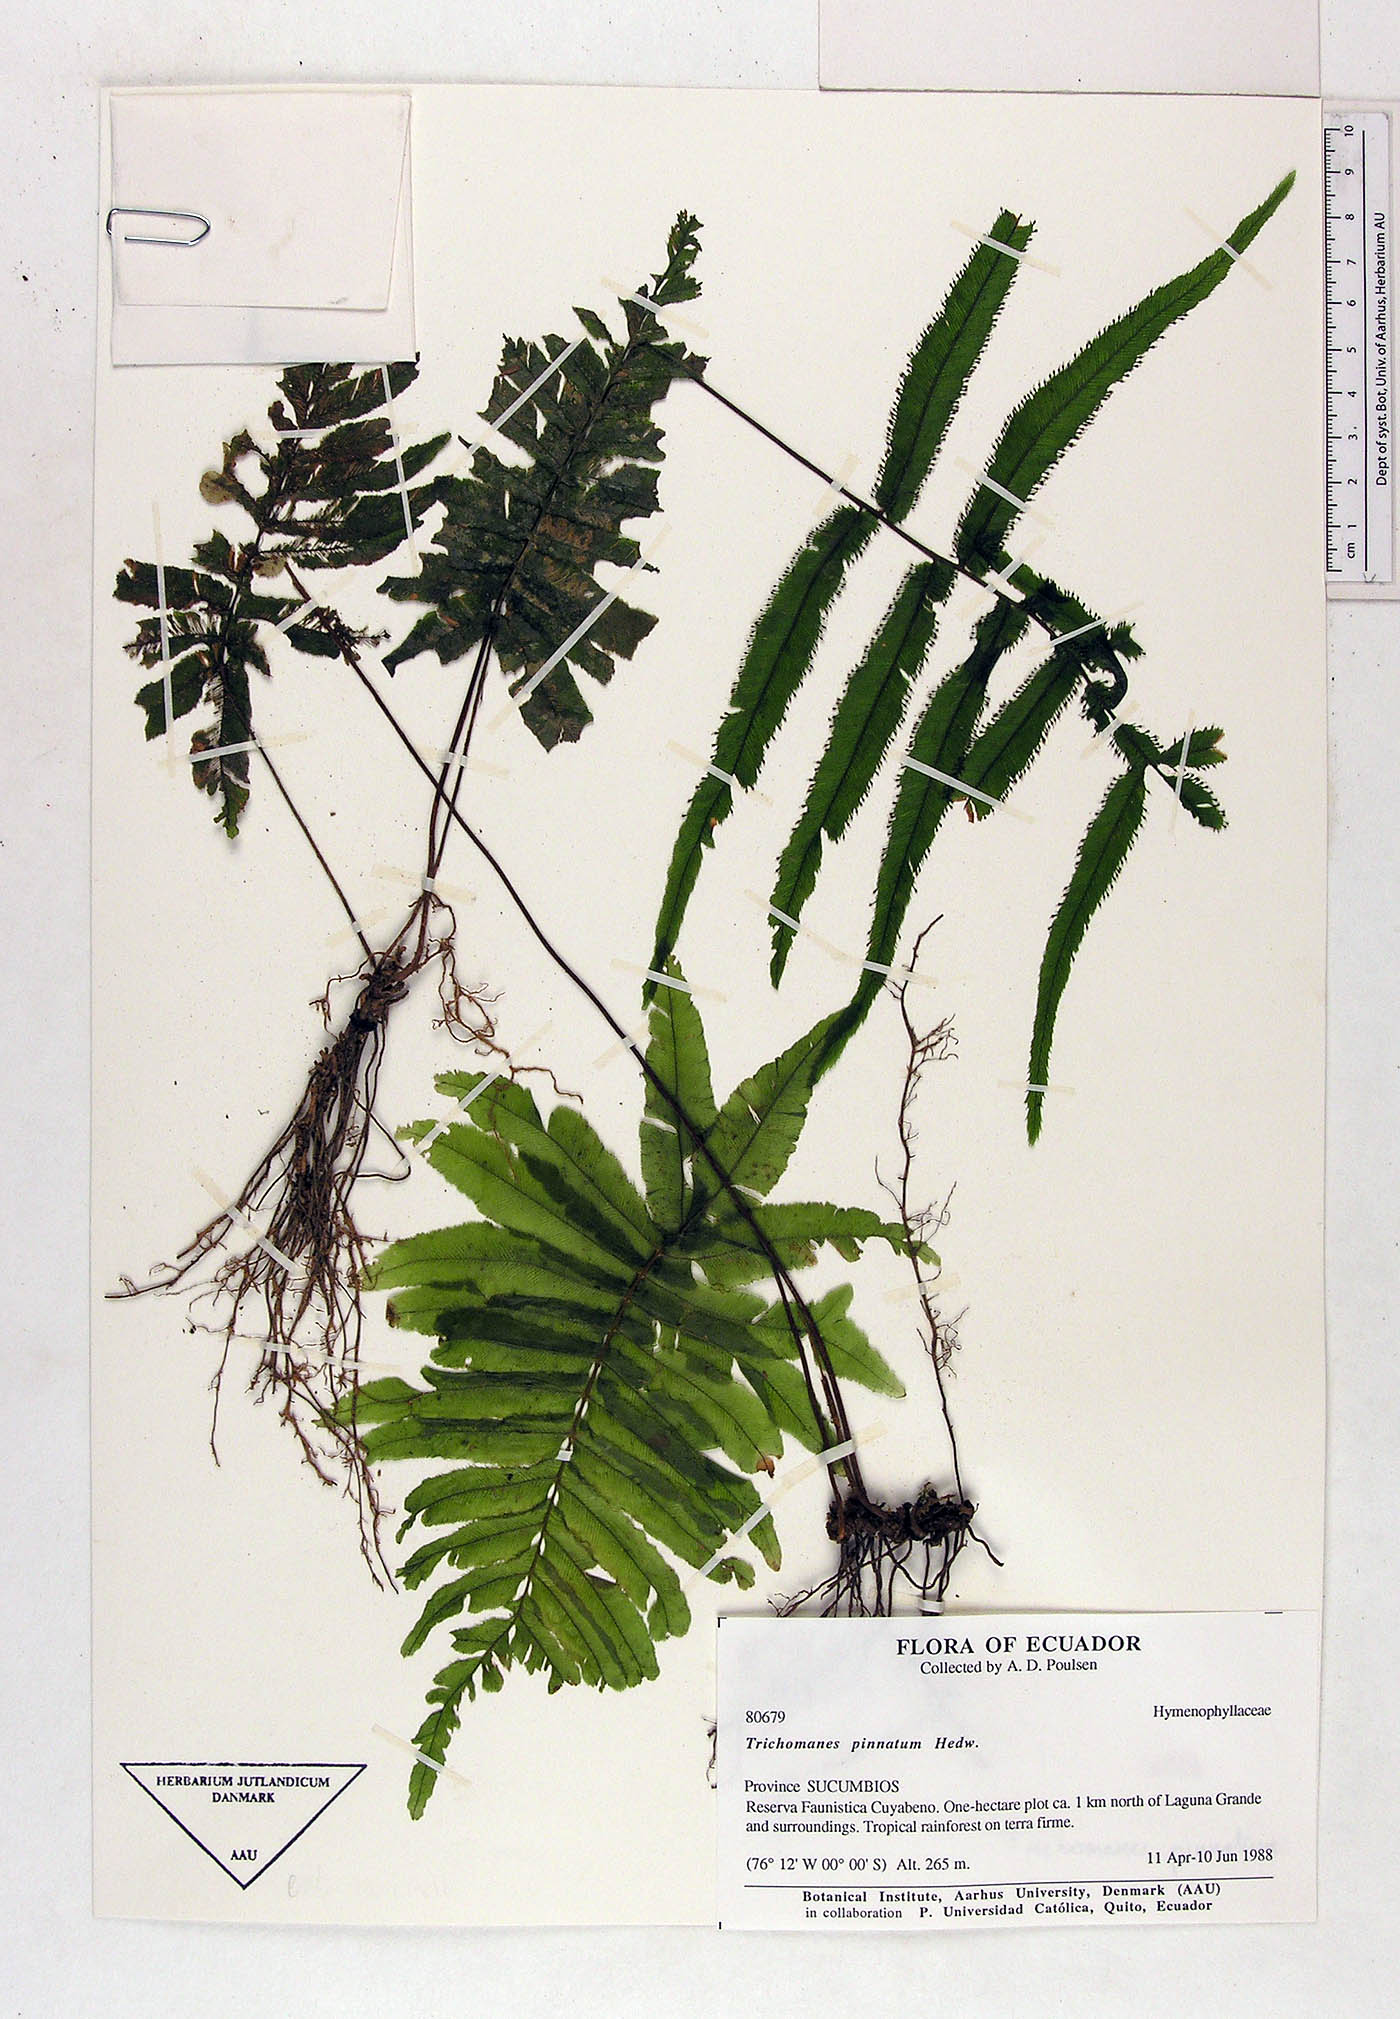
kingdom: Plantae
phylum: Tracheophyta
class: Polypodiopsida
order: Hymenophyllales
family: Hymenophyllaceae
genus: Trichomanes
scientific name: Trichomanes pinnatum
